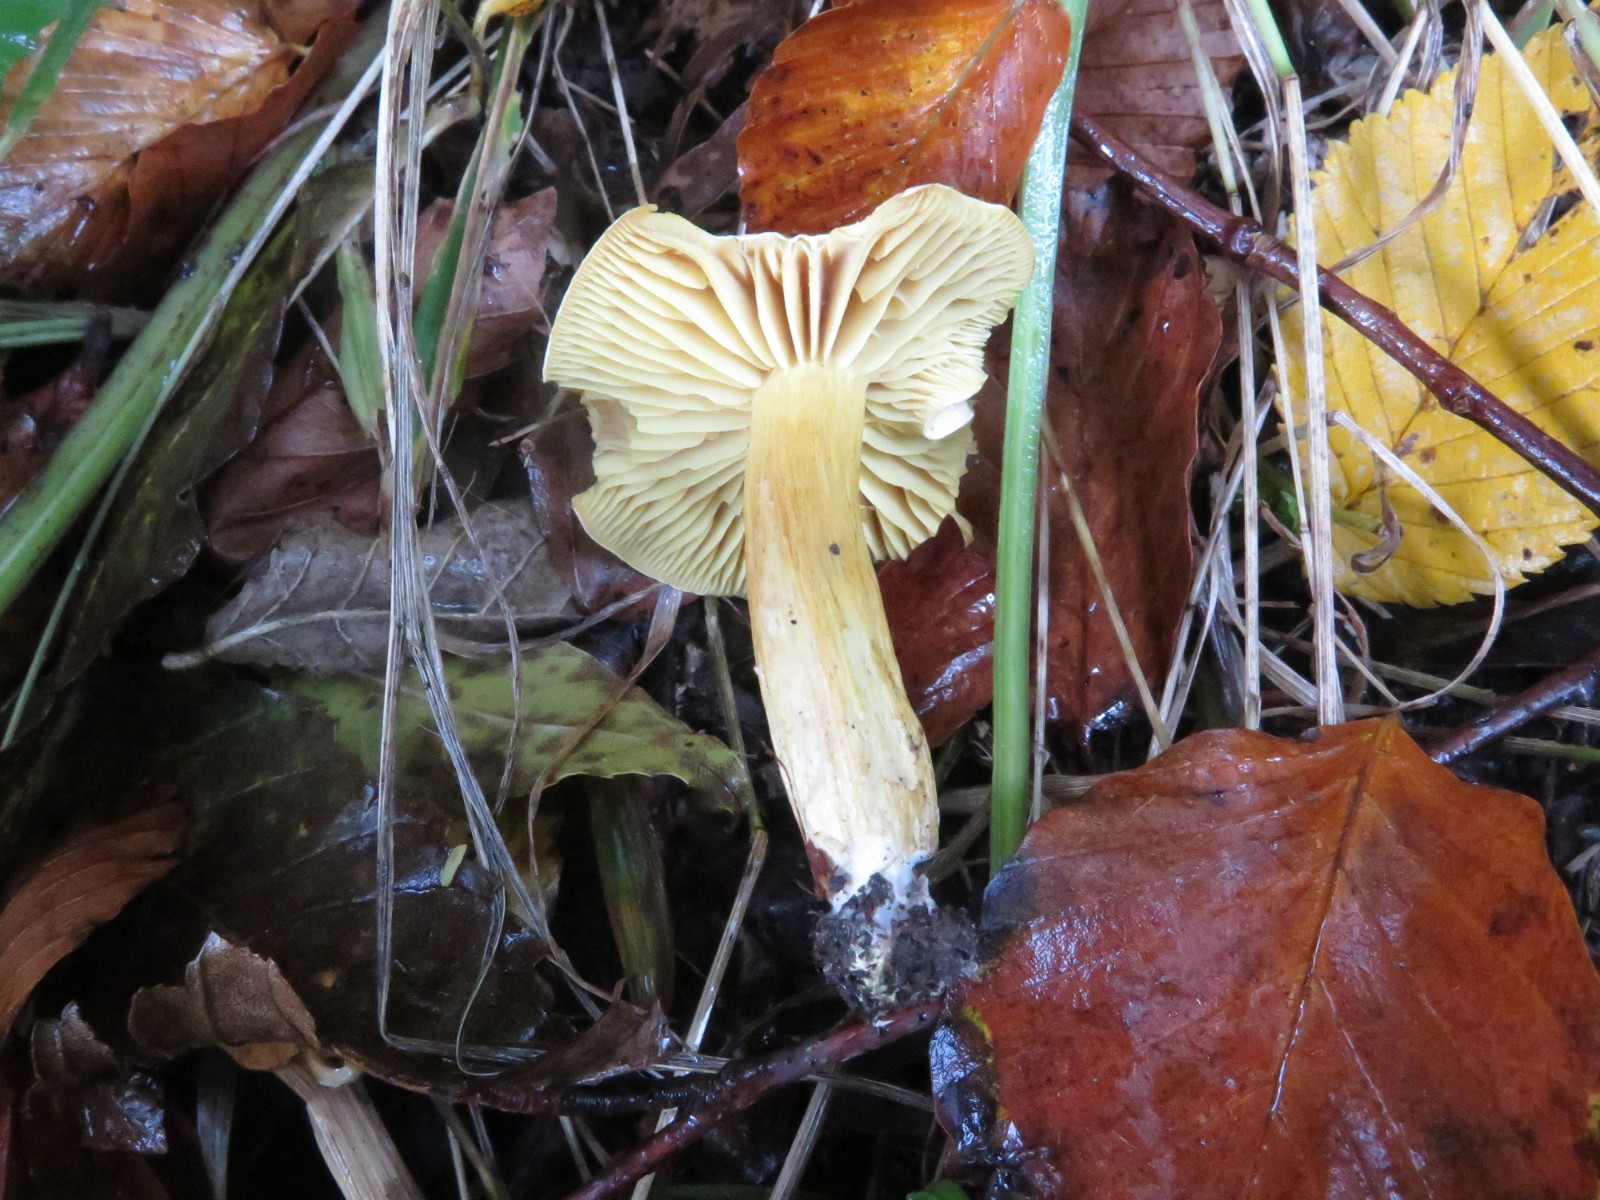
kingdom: Fungi
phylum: Basidiomycota
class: Agaricomycetes
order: Agaricales
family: Tricholomataceae
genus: Tricholoma
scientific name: Tricholoma sulphureum
